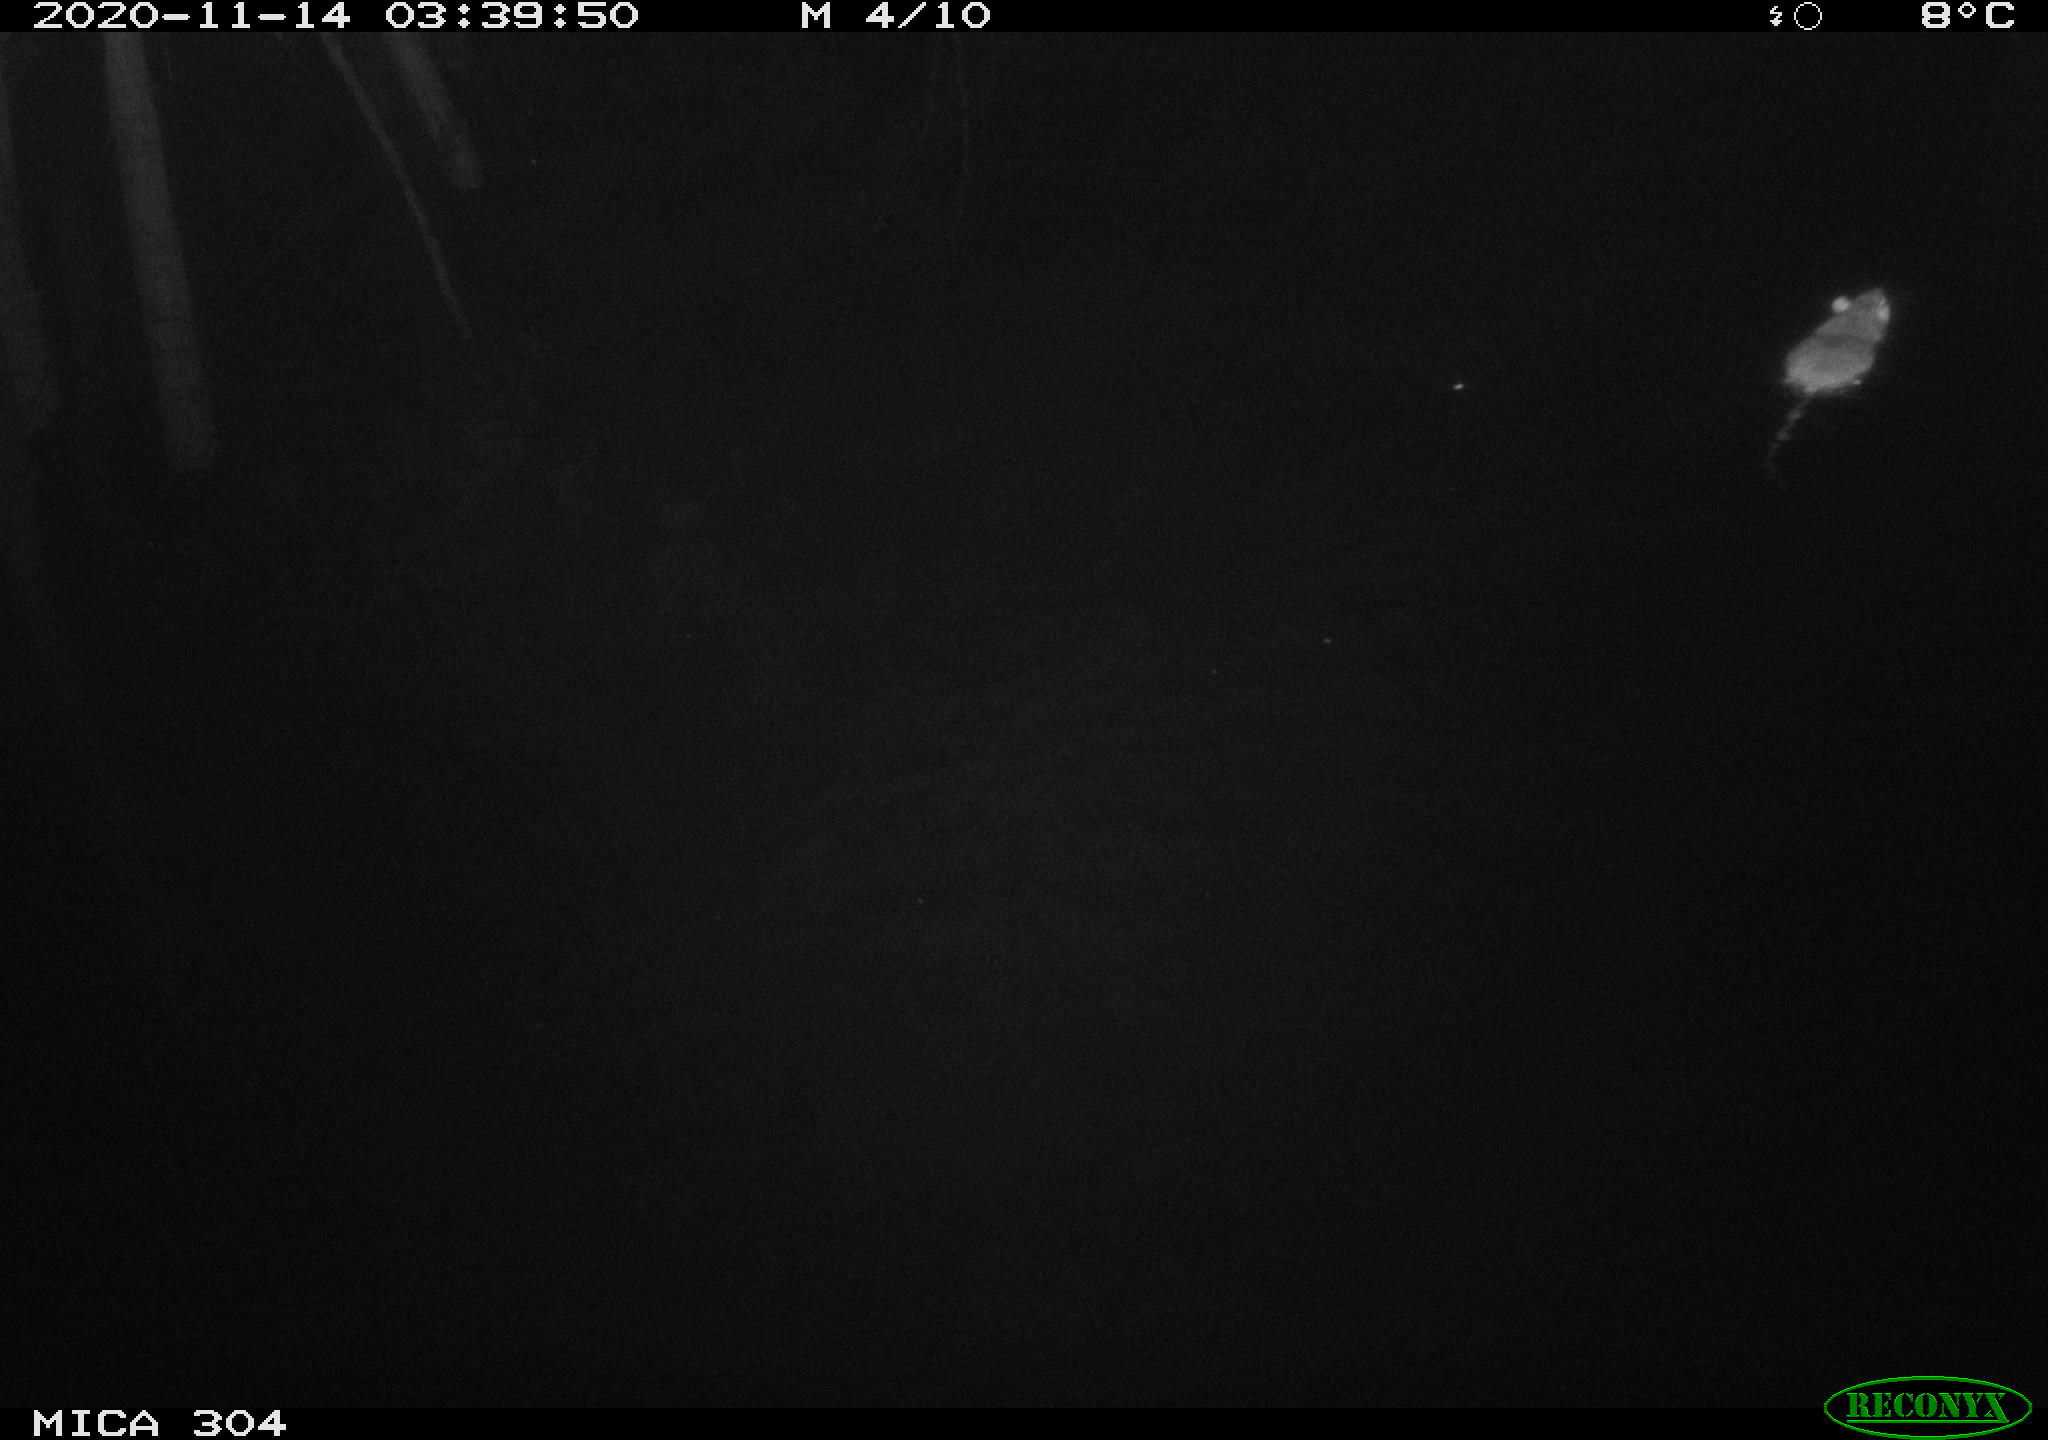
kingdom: Animalia
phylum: Chordata
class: Mammalia
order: Rodentia
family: Muridae
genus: Rattus
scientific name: Rattus norvegicus
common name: Brown rat
